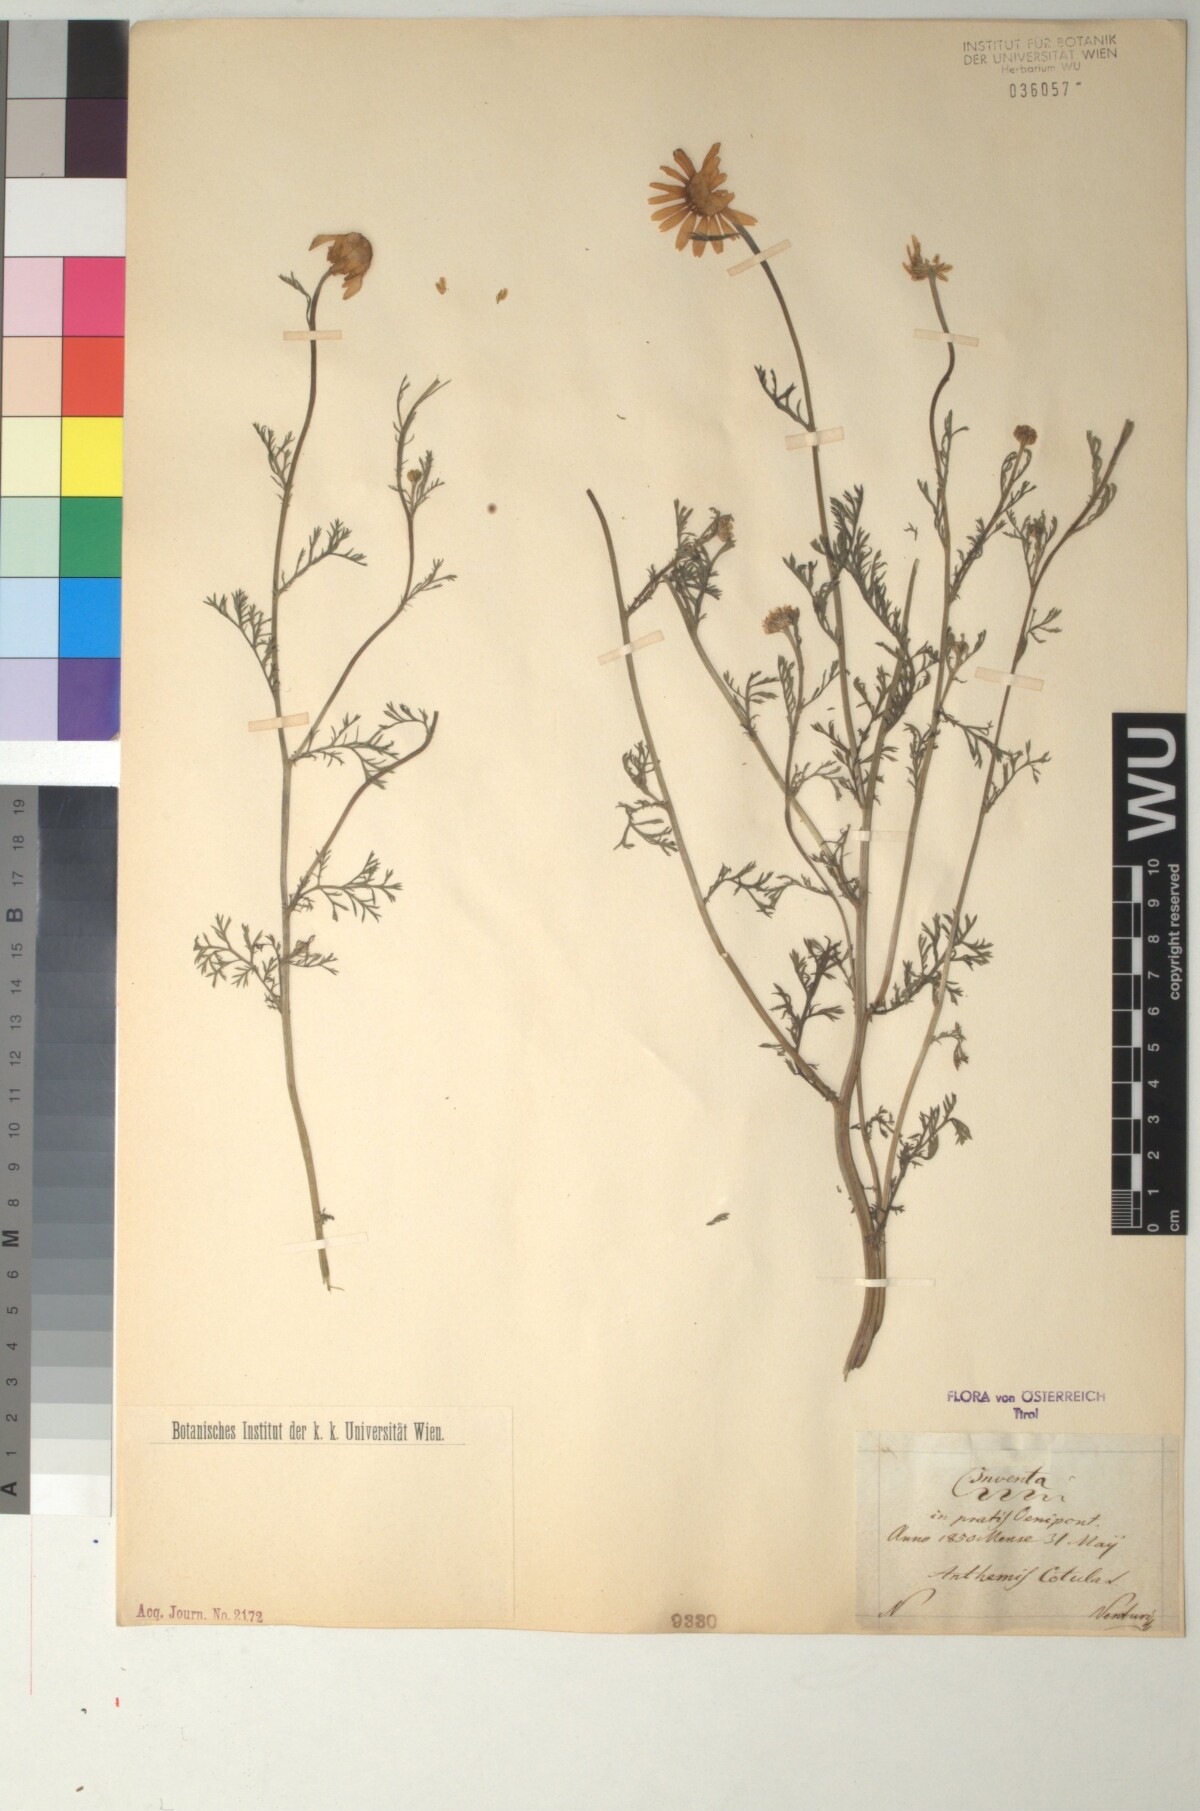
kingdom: Plantae
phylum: Tracheophyta
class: Magnoliopsida
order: Asterales
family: Asteraceae
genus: Anthemis
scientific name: Anthemis cotula
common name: Stinking chamomile
